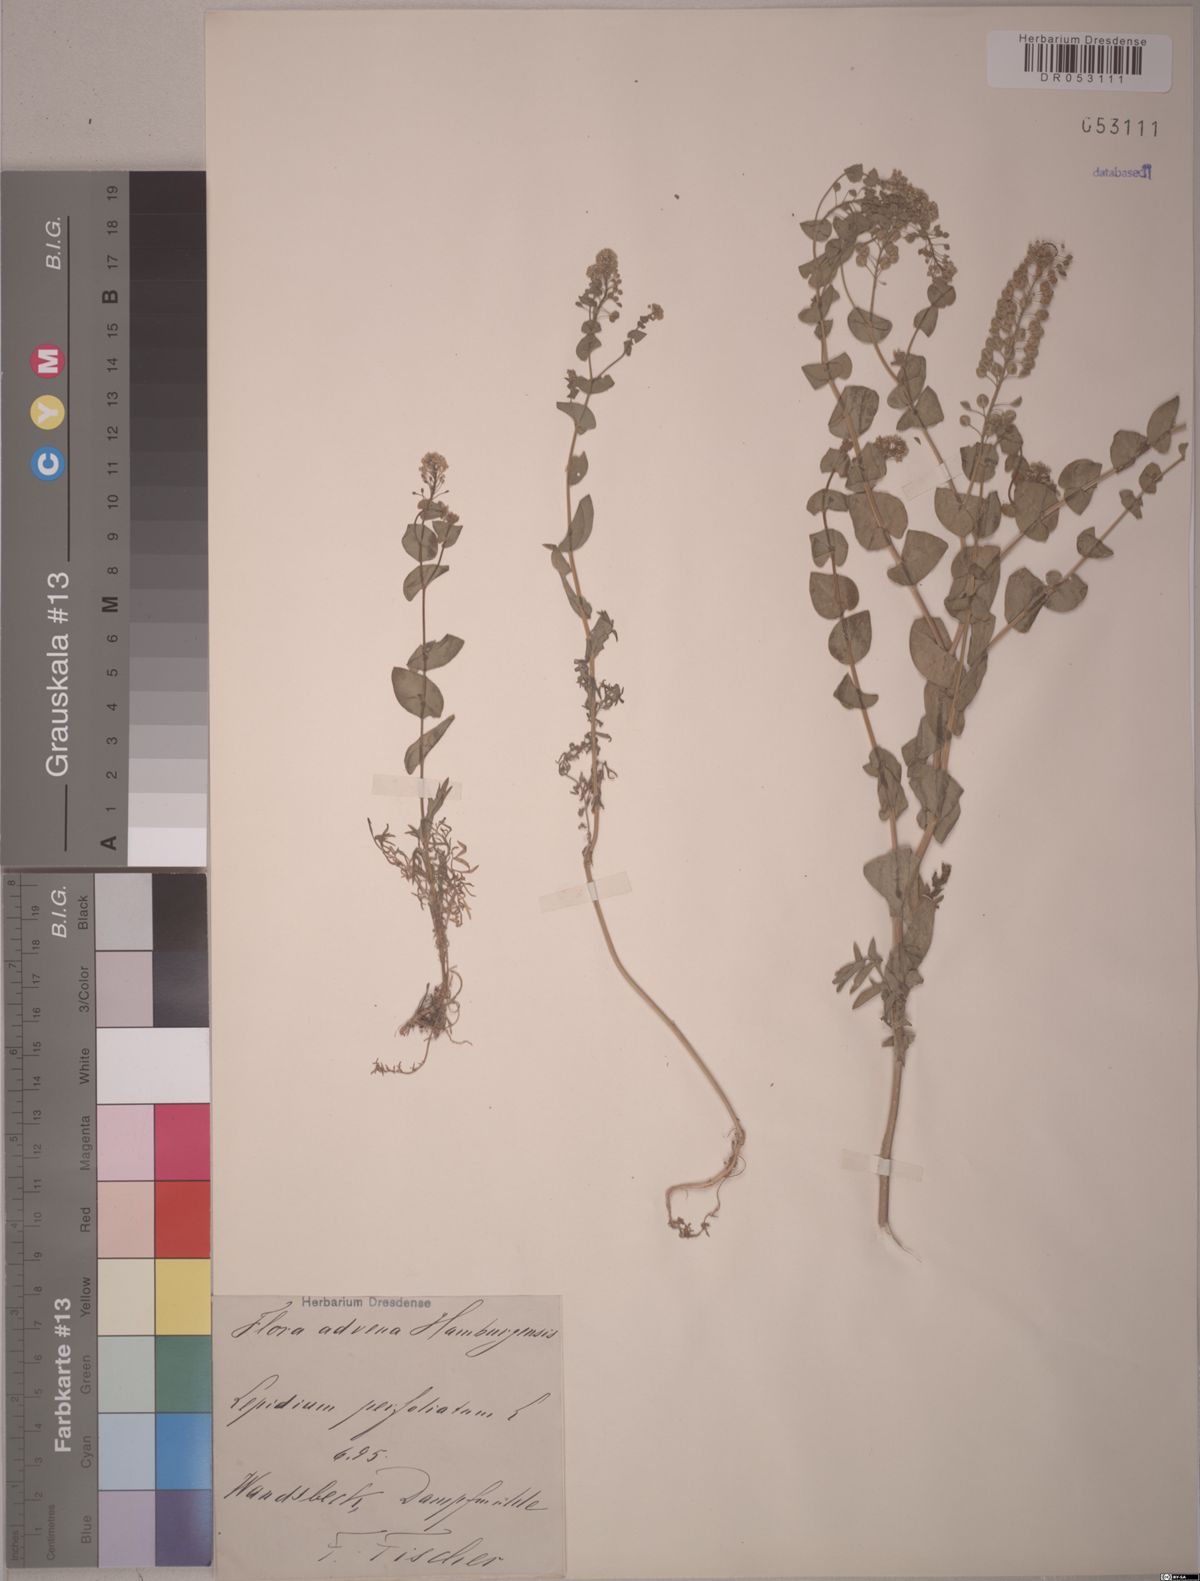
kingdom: Plantae
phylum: Tracheophyta
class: Magnoliopsida
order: Brassicales
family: Brassicaceae
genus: Lepidium
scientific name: Lepidium perfoliatum
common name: Perfoliate pepperwort
